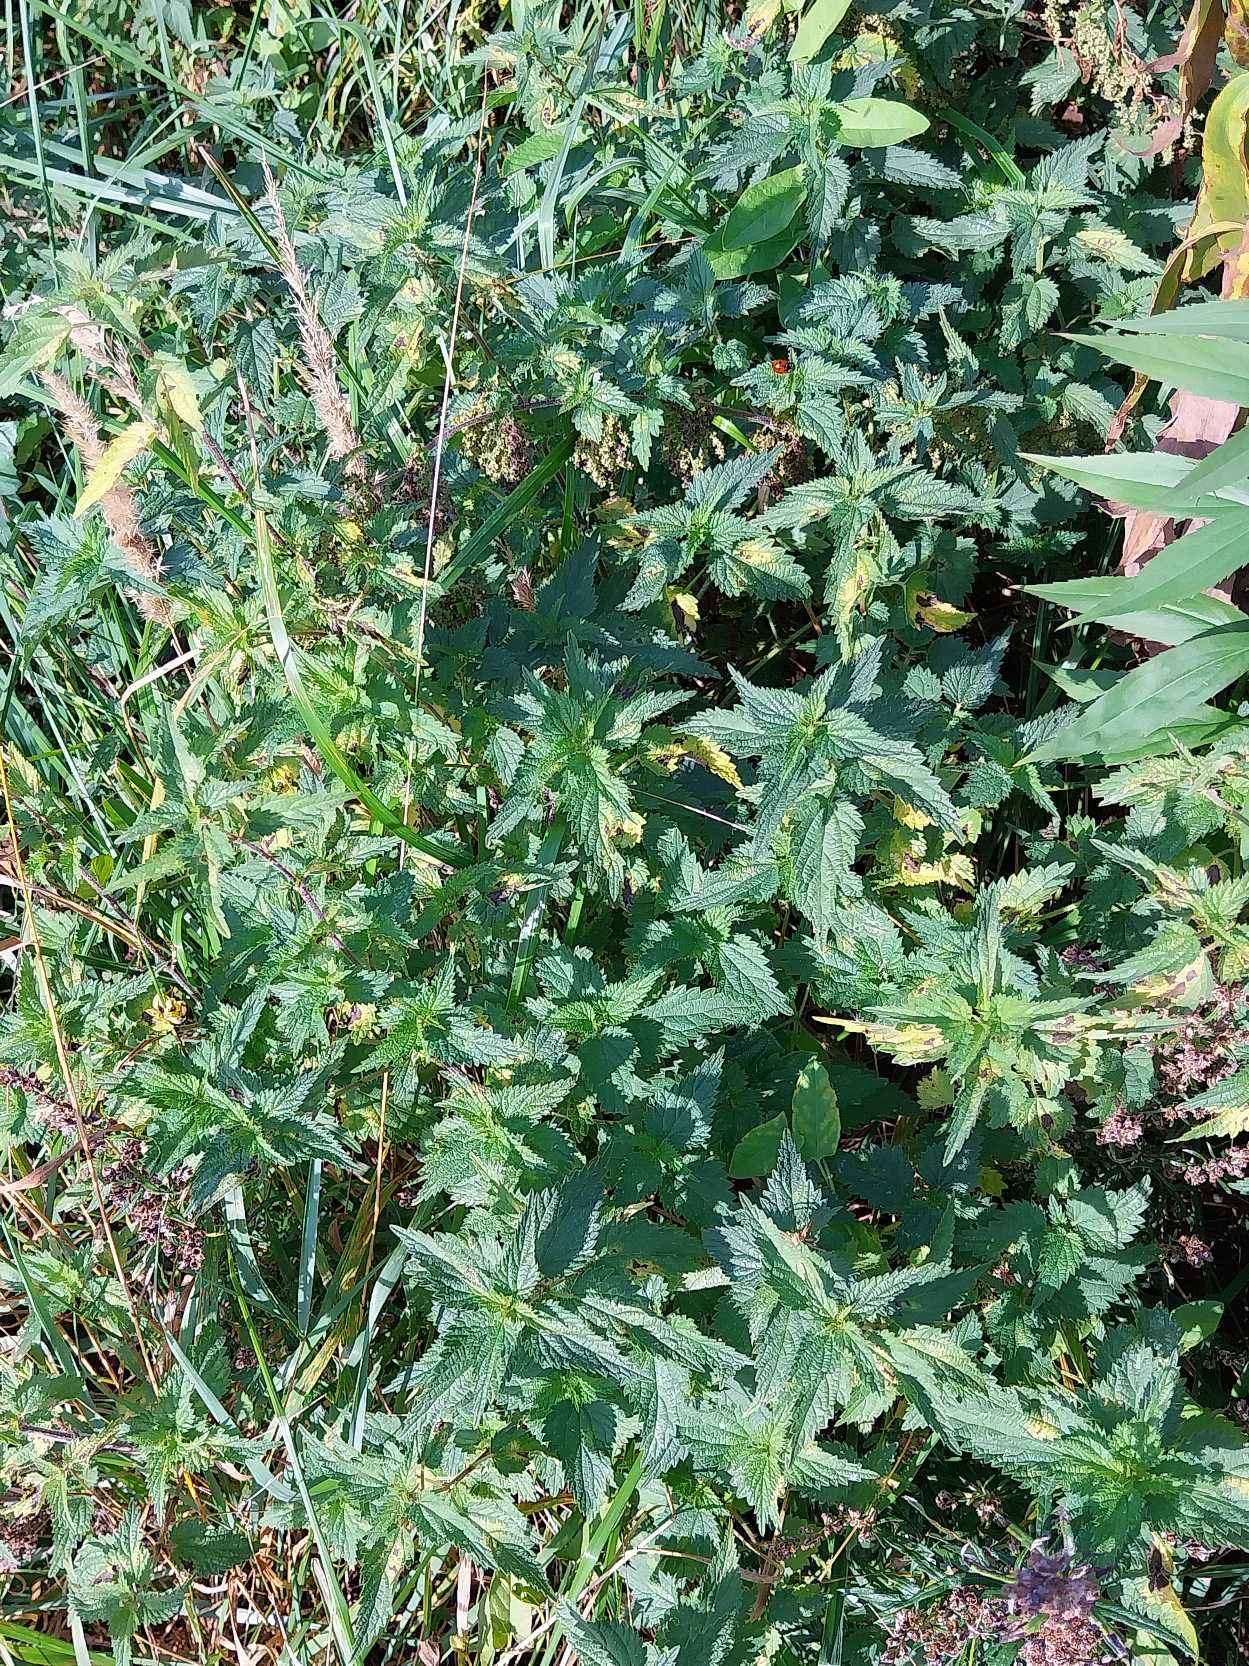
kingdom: Plantae
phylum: Tracheophyta
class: Magnoliopsida
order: Rosales
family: Urticaceae
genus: Urtica
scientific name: Urtica dioica
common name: Stor nælde
